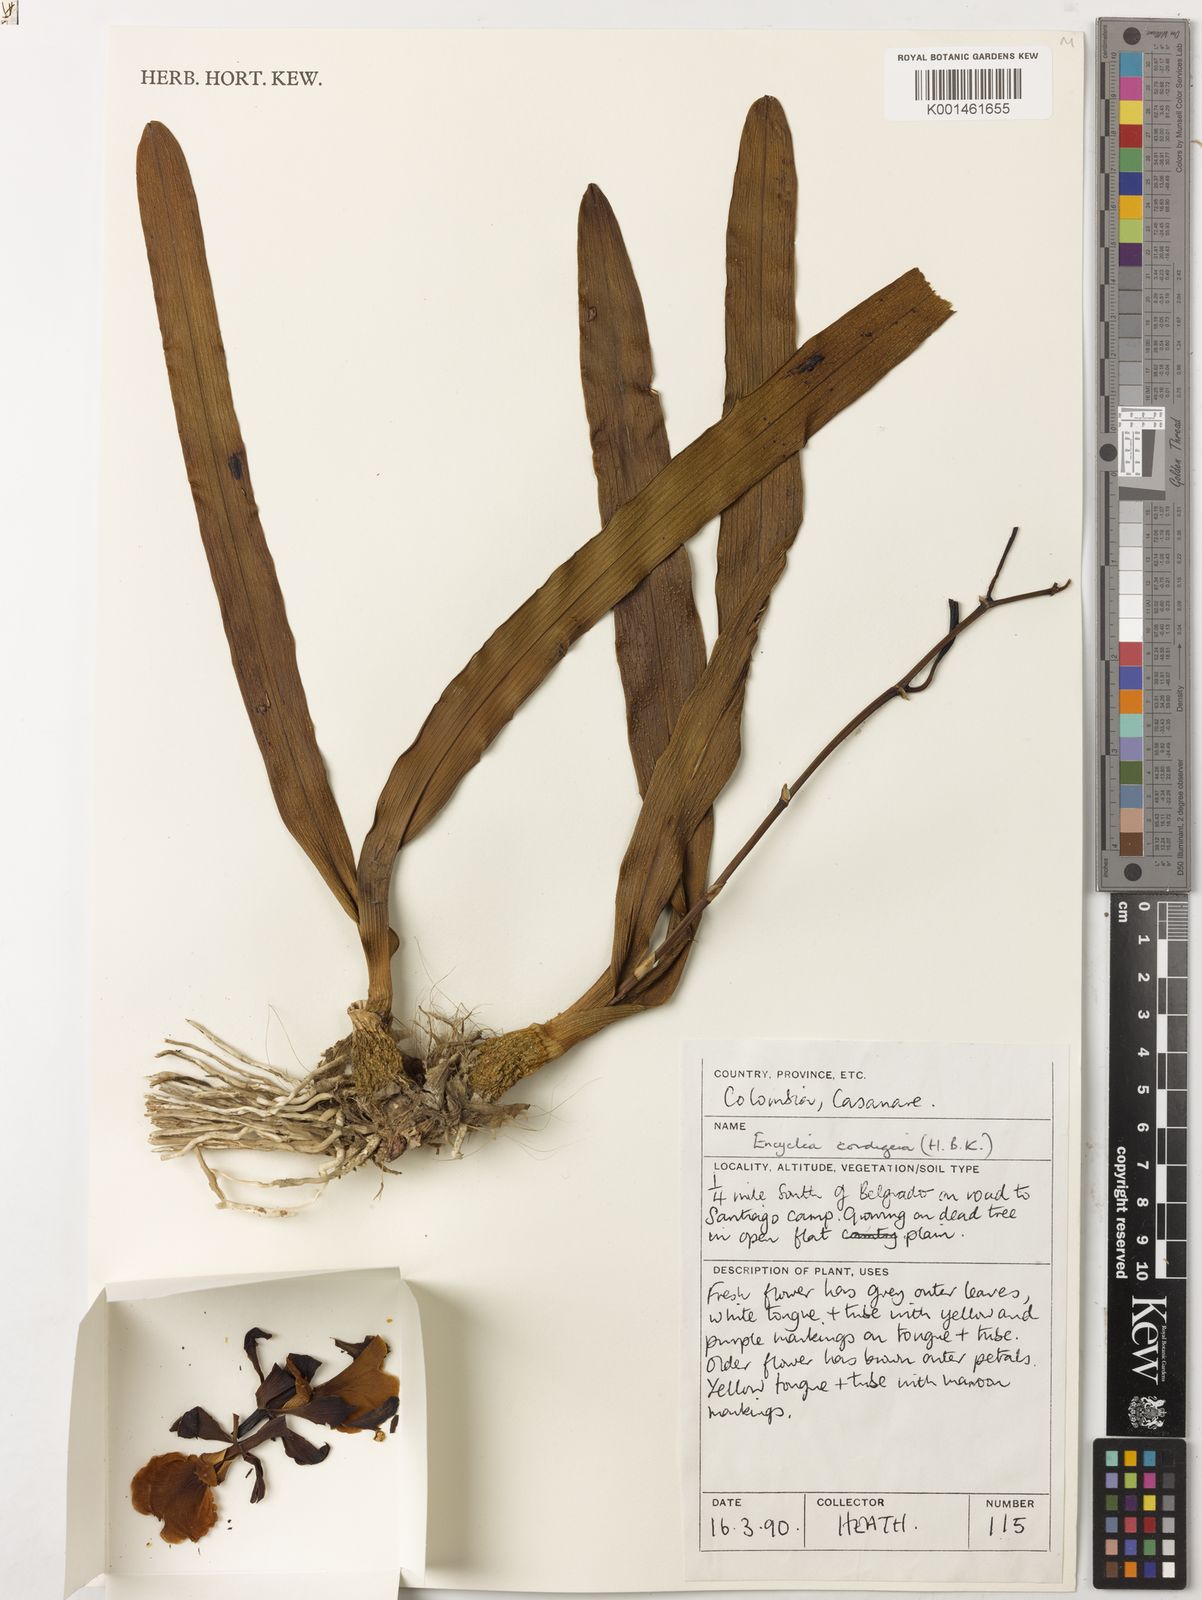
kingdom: Plantae
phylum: Tracheophyta
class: Liliopsida
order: Asparagales
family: Orchidaceae
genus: Encyclia
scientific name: Encyclia cordigera
